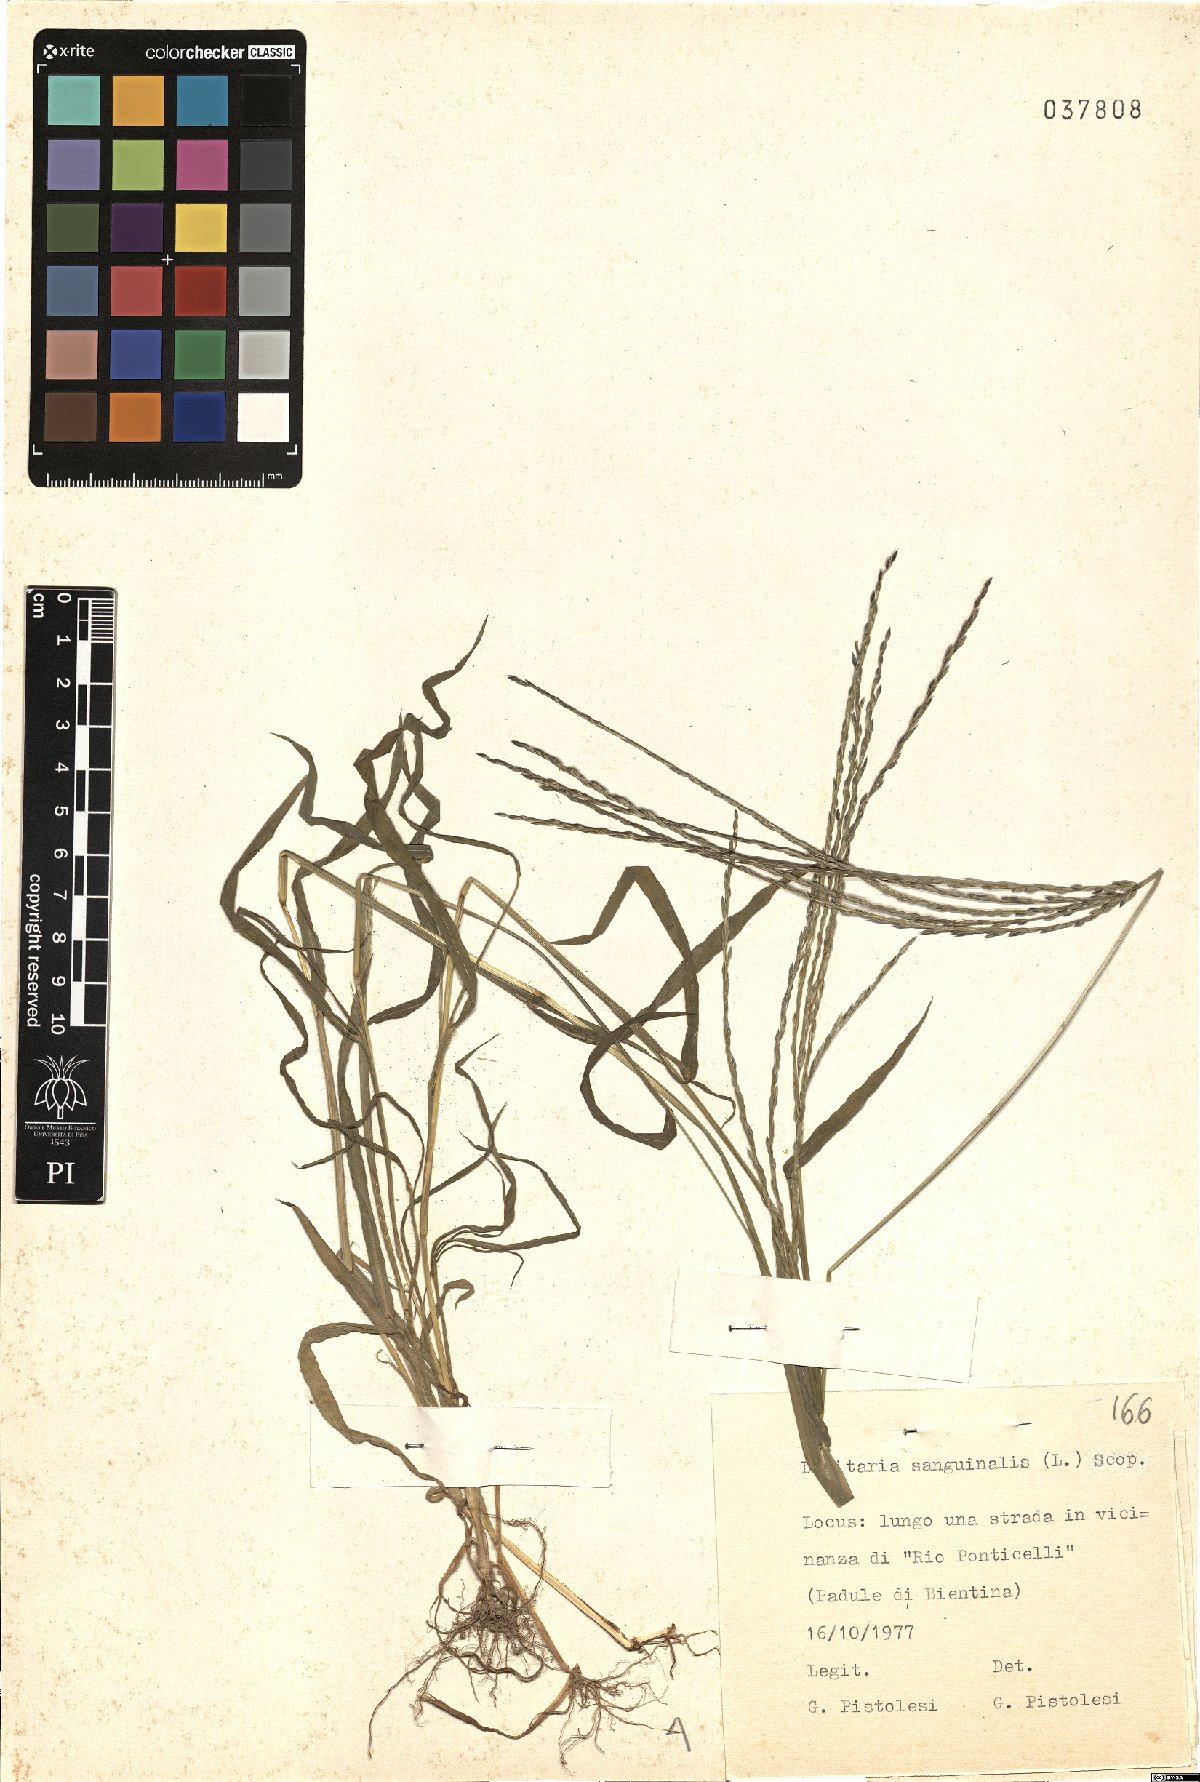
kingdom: Plantae
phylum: Tracheophyta
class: Liliopsida
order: Poales
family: Poaceae
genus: Digitaria
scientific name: Digitaria sanguinalis
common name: Hairy crabgrass
